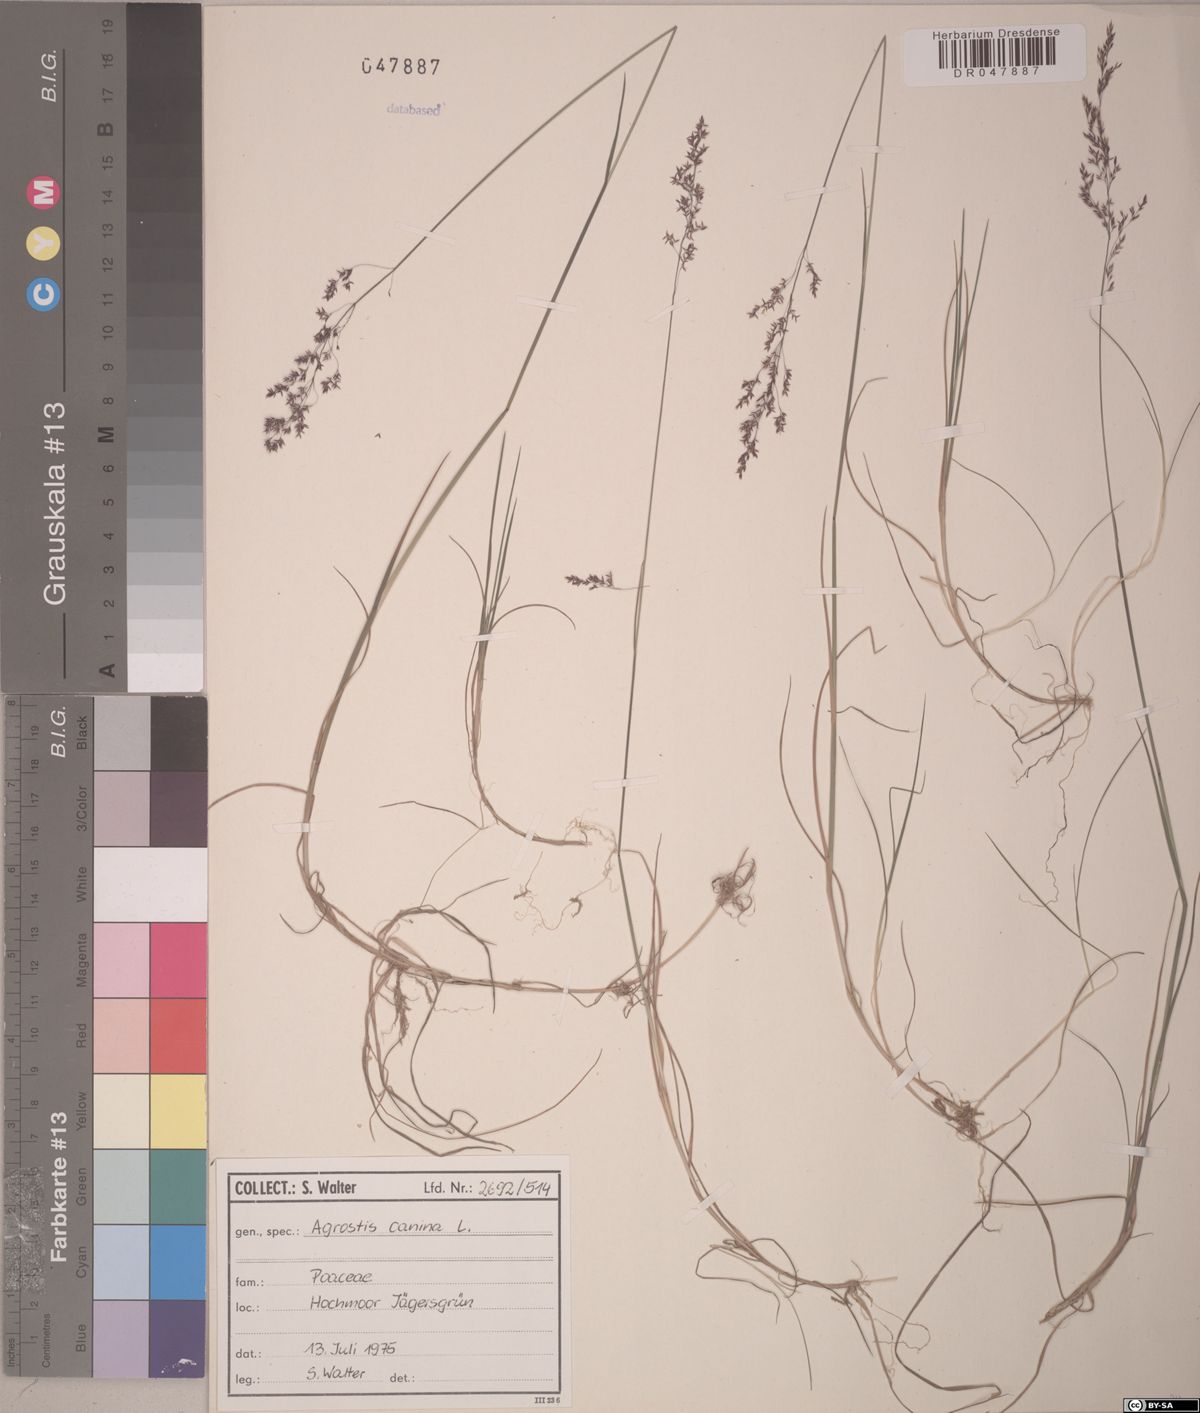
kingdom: Plantae
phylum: Tracheophyta
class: Liliopsida
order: Poales
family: Poaceae
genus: Agrostis
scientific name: Agrostis canina
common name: Velvet bent
